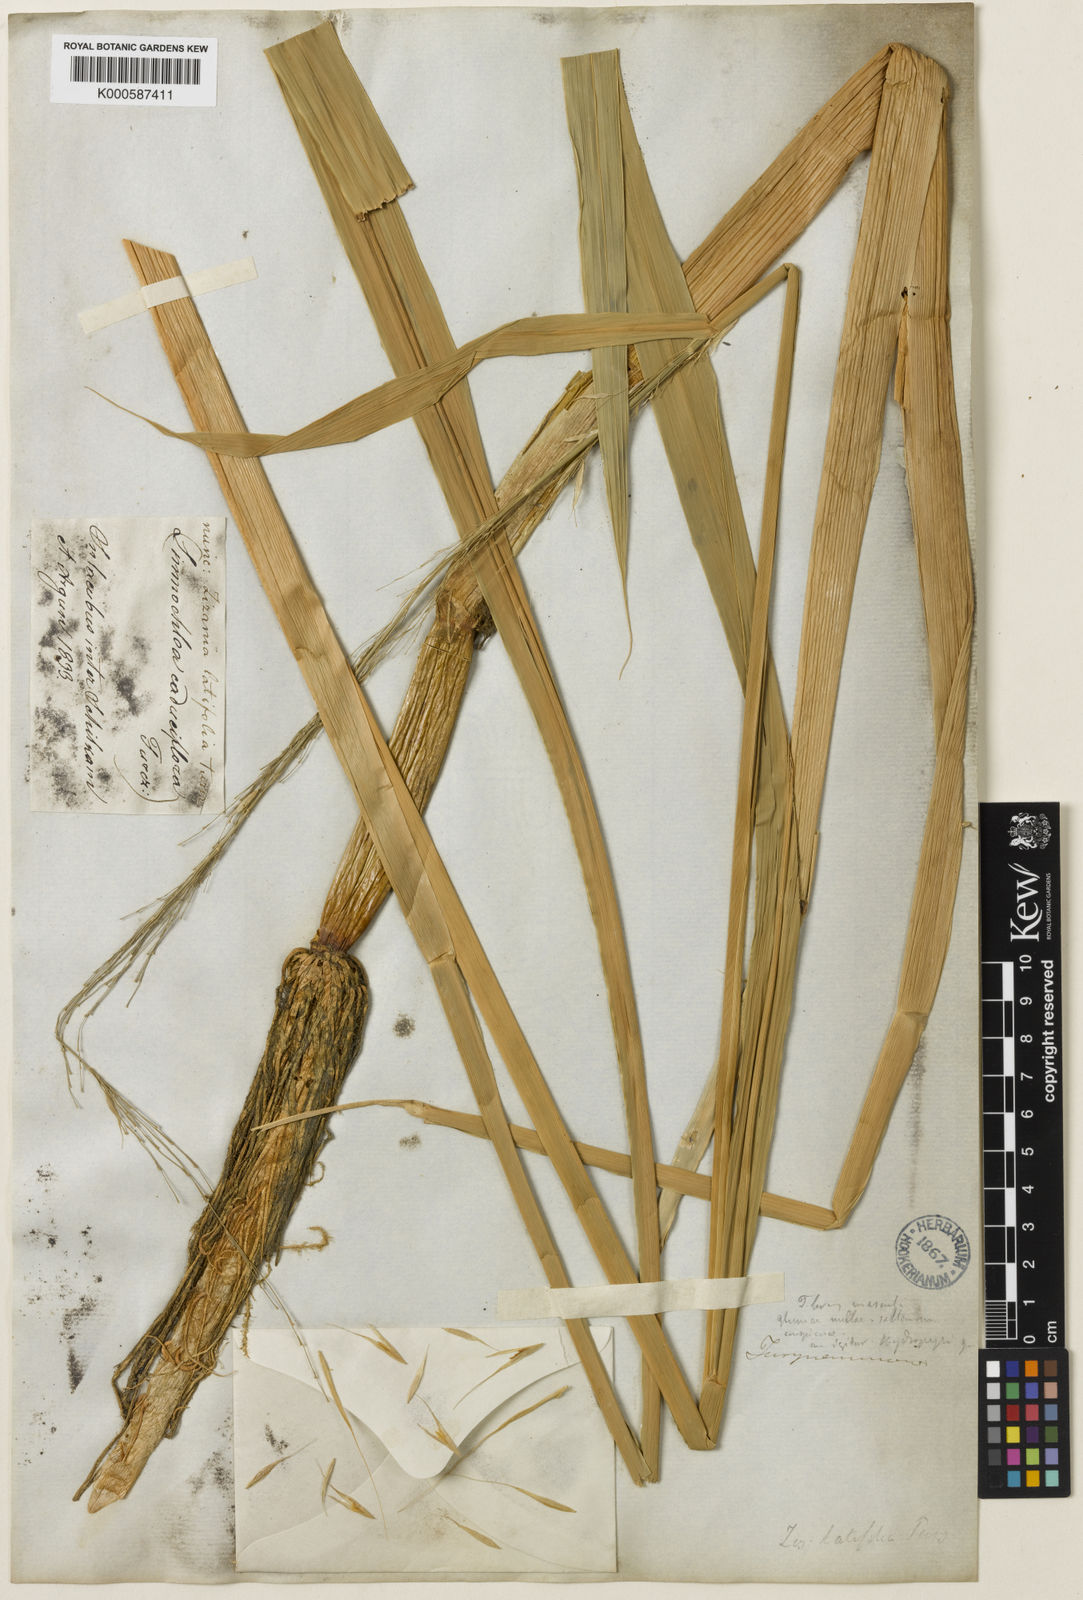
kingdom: Plantae
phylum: Tracheophyta
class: Liliopsida
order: Poales
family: Poaceae
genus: Zizania
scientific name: Zizania
